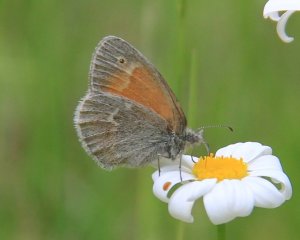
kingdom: Animalia
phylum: Arthropoda
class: Insecta
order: Lepidoptera
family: Nymphalidae
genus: Coenonympha
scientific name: Coenonympha tullia
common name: Large Heath
